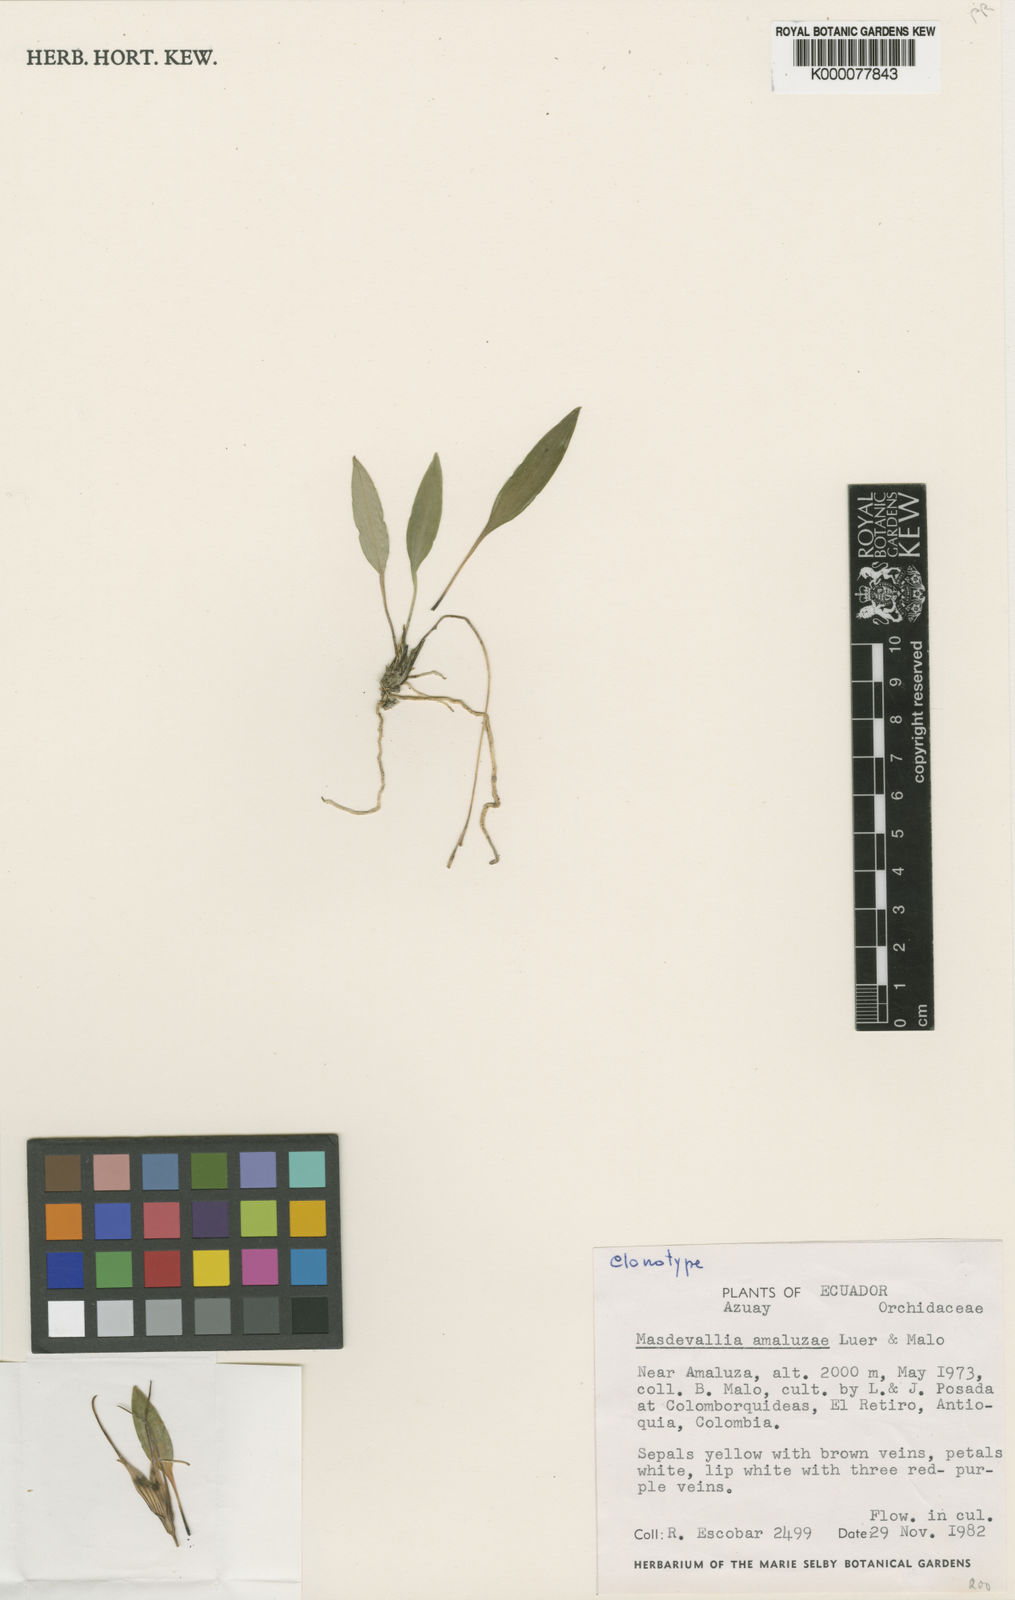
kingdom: Plantae
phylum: Tracheophyta
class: Liliopsida
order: Asparagales
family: Orchidaceae
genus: Masdevallia
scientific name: Masdevallia amaluzae
